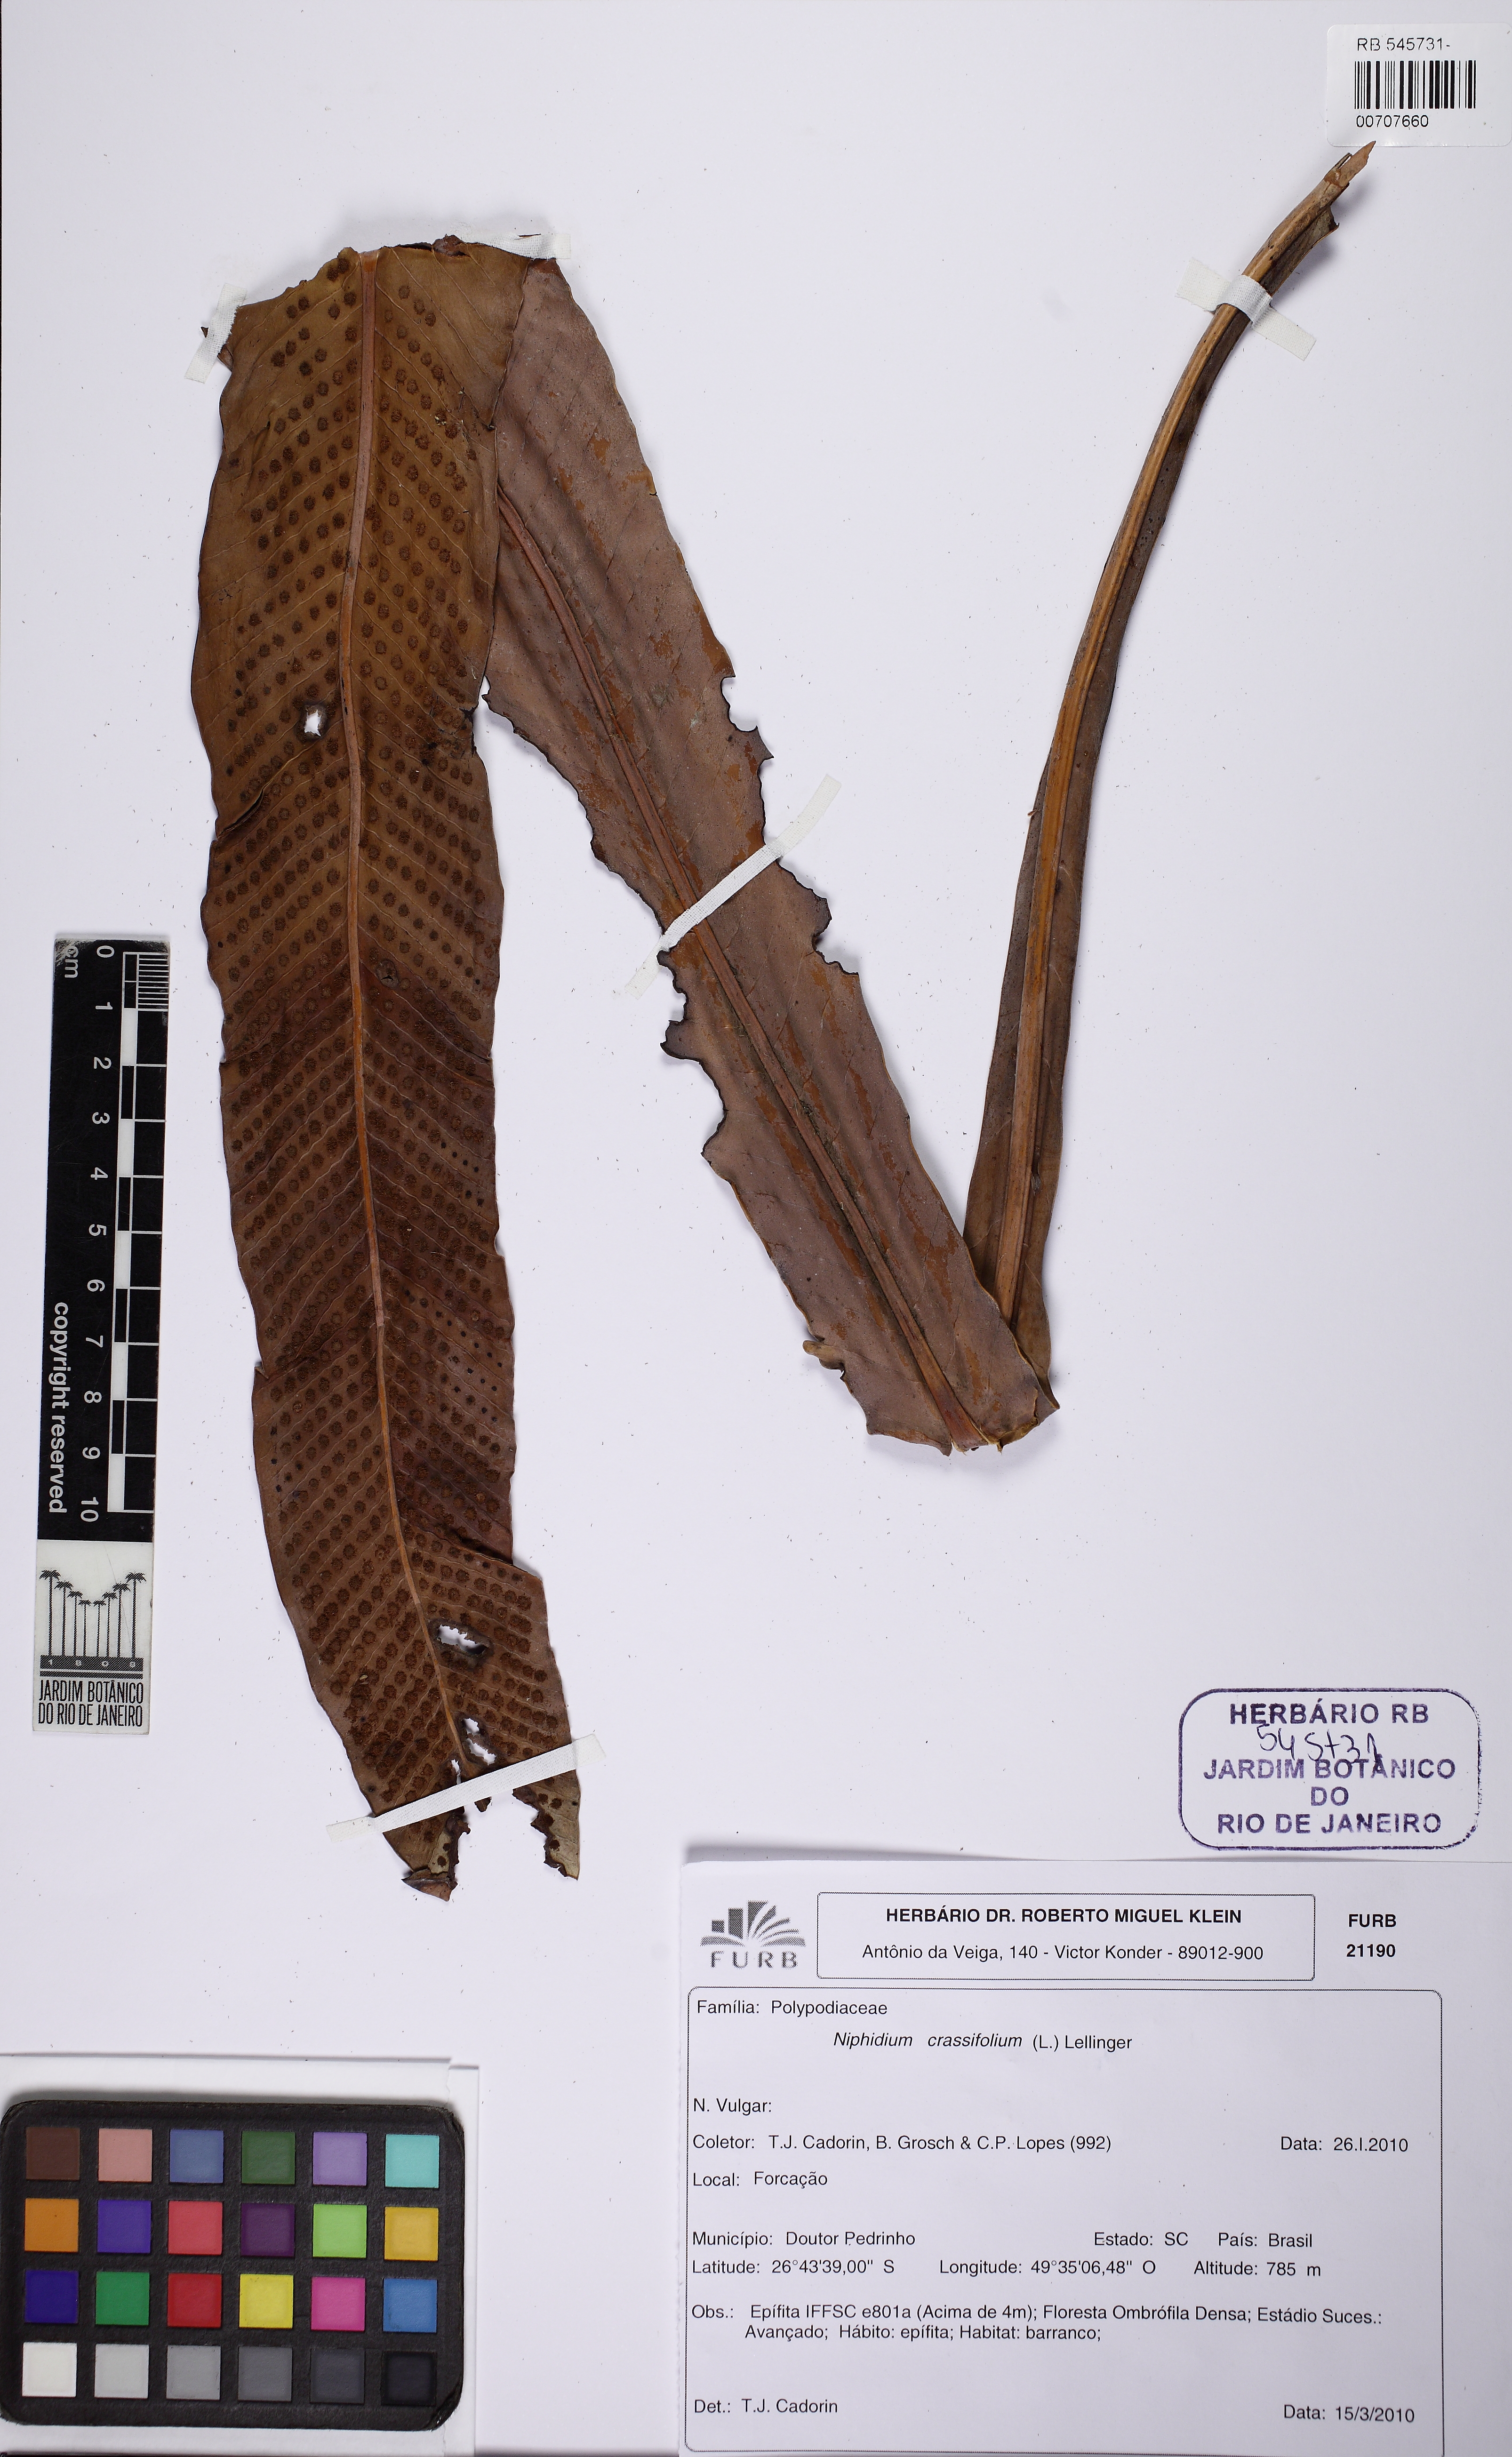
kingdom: Plantae
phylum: Tracheophyta
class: Polypodiopsida
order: Polypodiales
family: Polypodiaceae
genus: Niphidium
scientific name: Niphidium crassifolium
